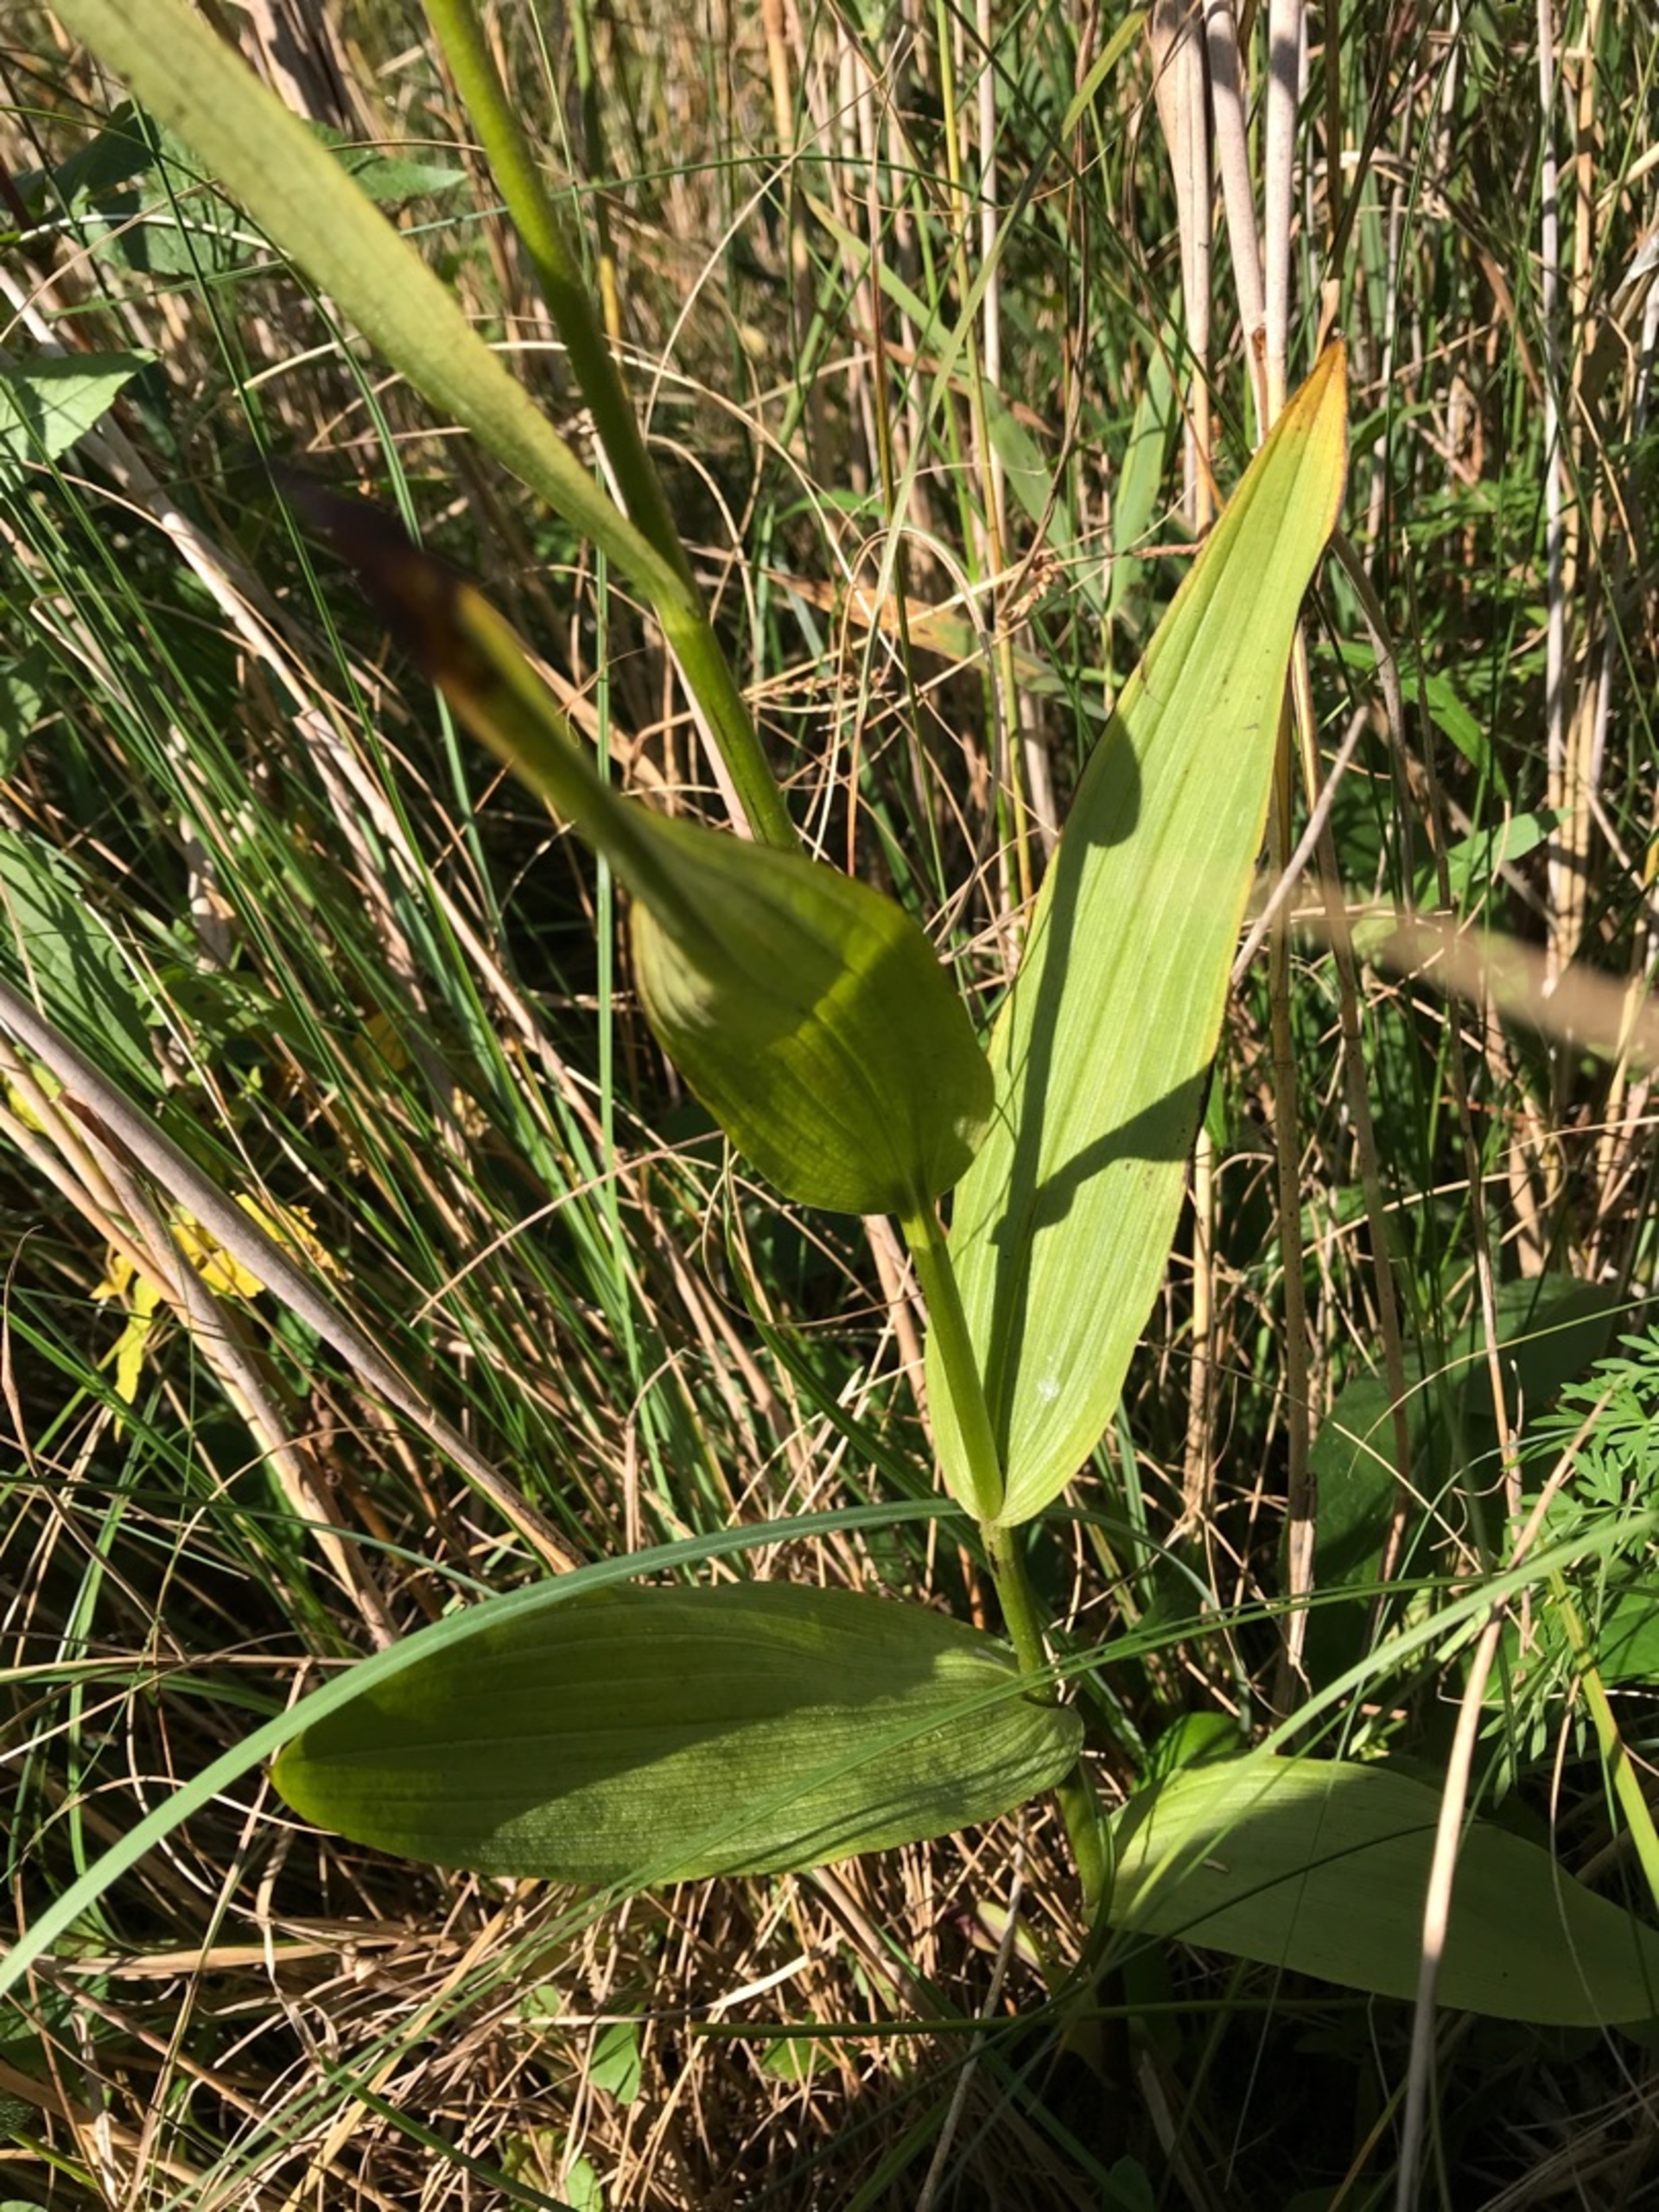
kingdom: Plantae
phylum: Tracheophyta
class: Liliopsida
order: Asparagales
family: Orchidaceae
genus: Epipactis
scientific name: Epipactis palustris
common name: Sump-hullæbe
